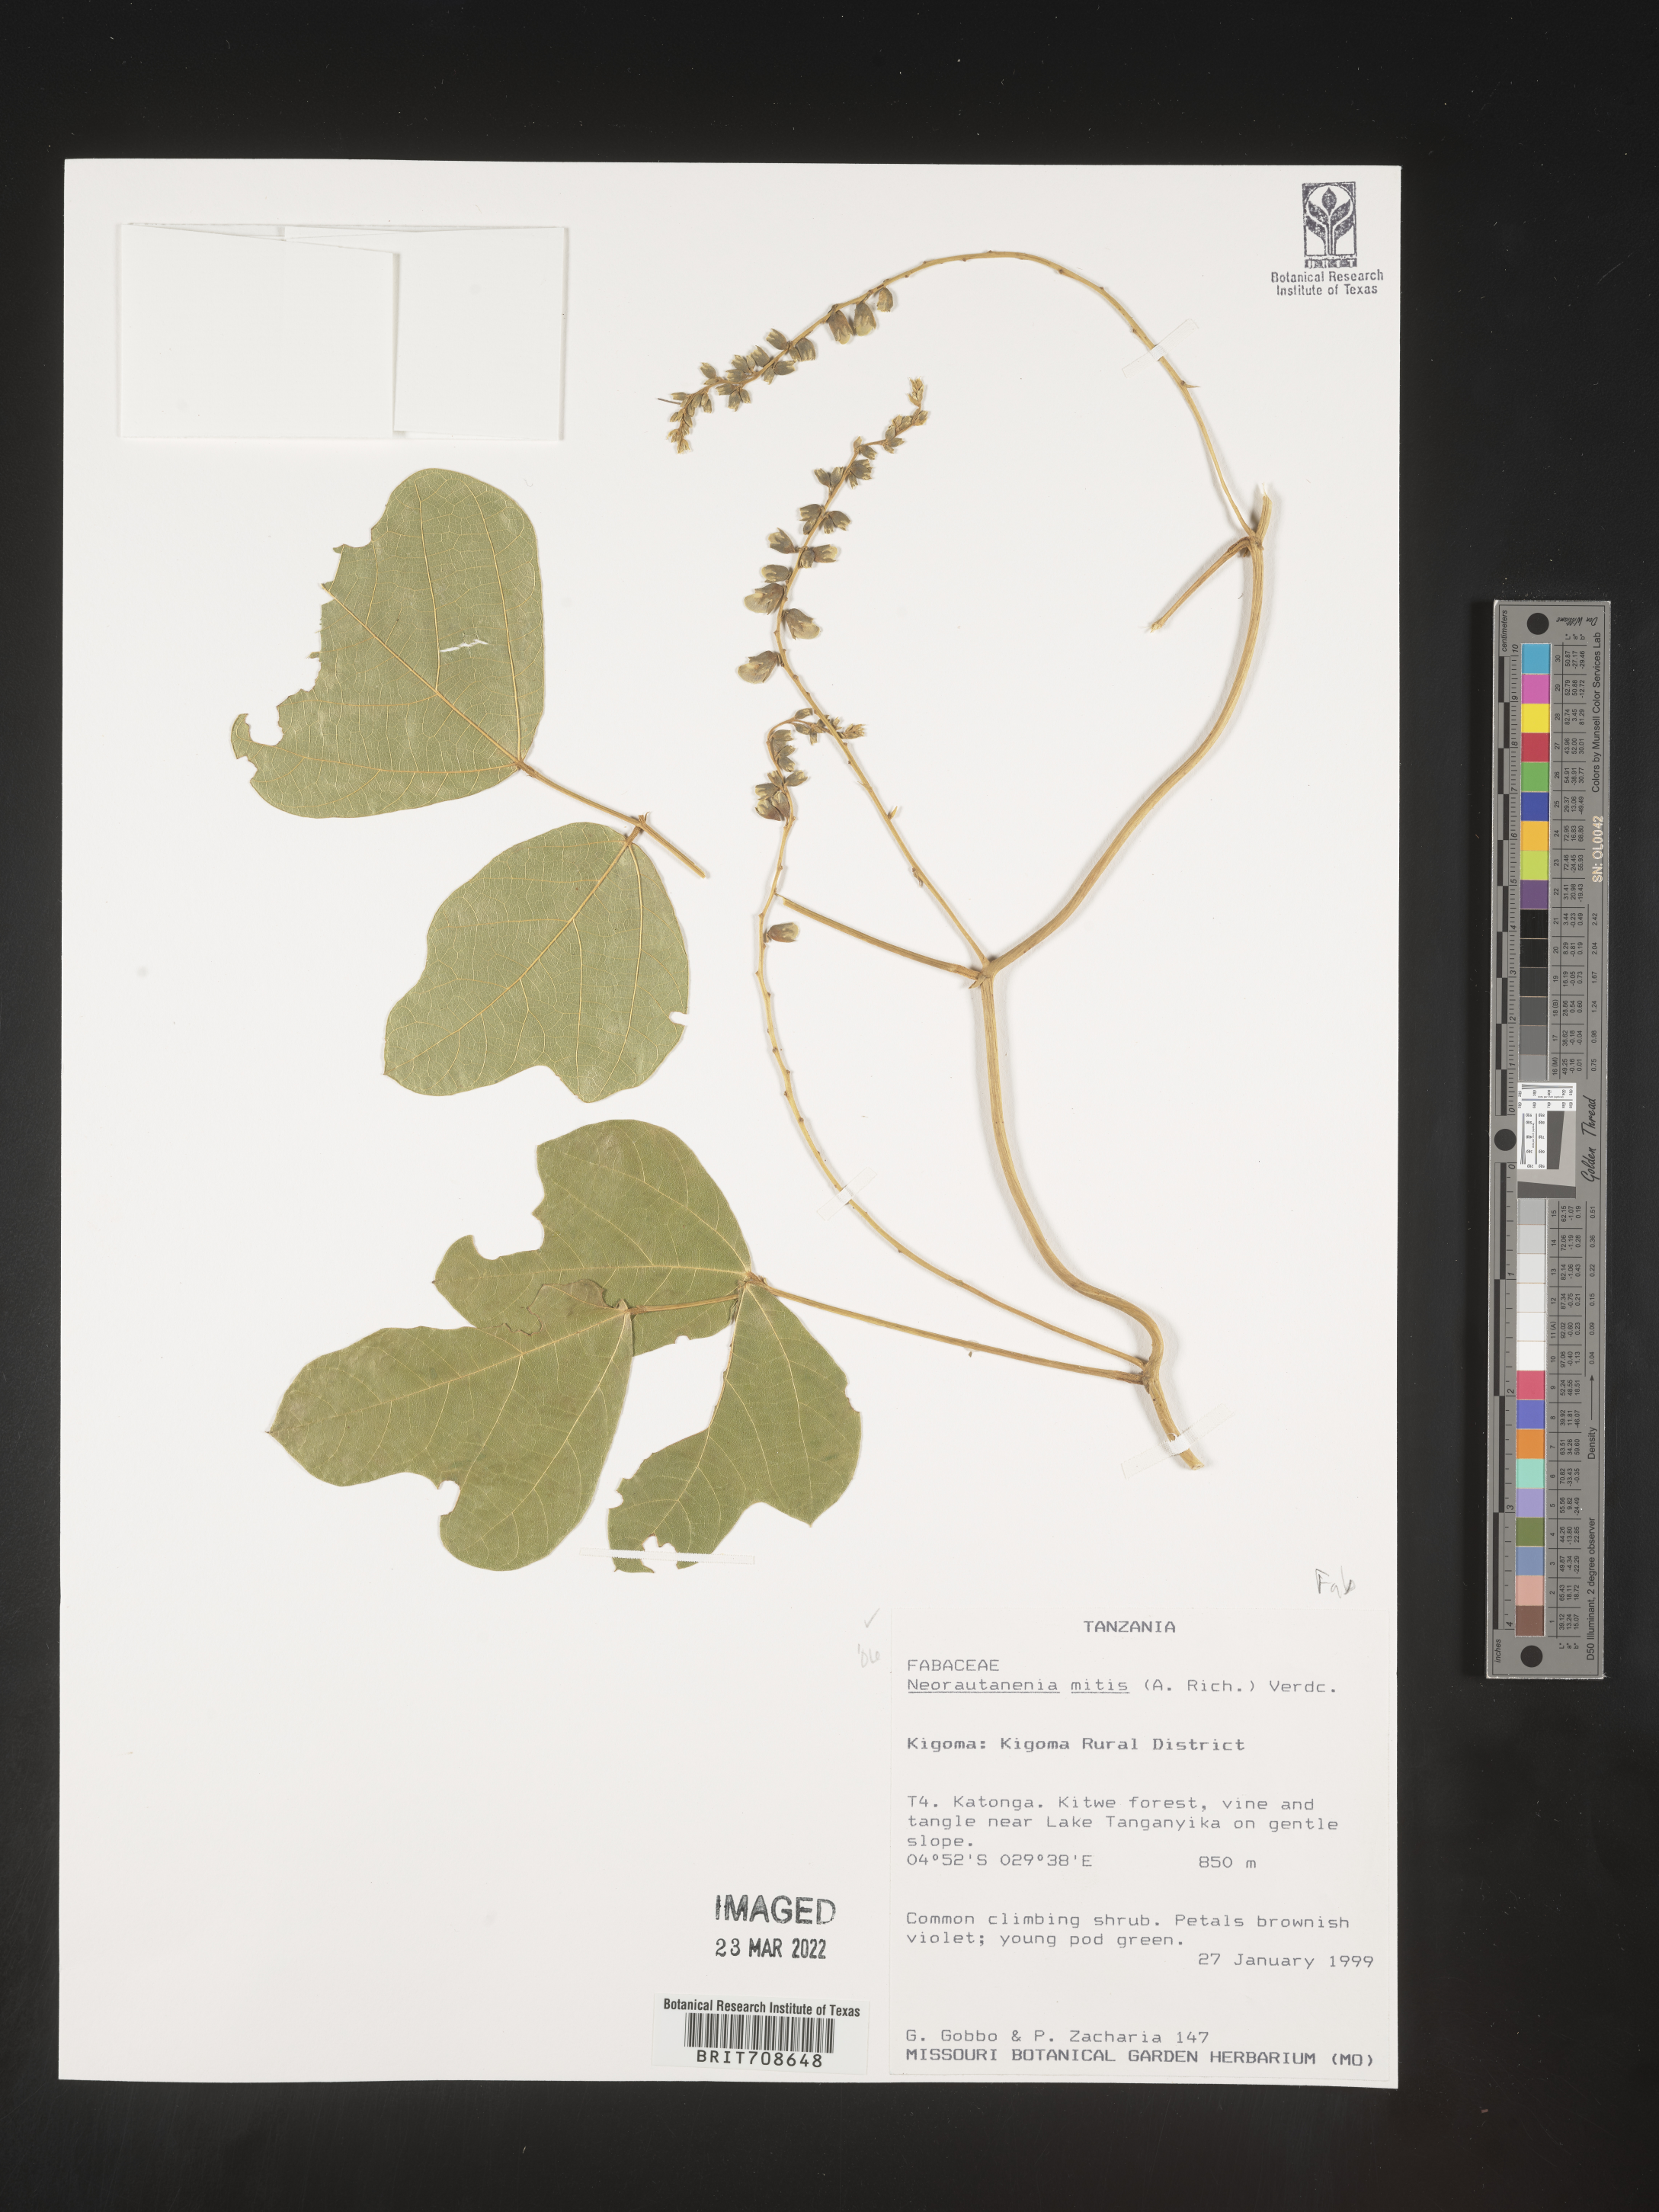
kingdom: Plantae
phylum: Tracheophyta
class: Magnoliopsida
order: Fabales
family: Fabaceae
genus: Neorautanenia
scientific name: Neorautanenia
